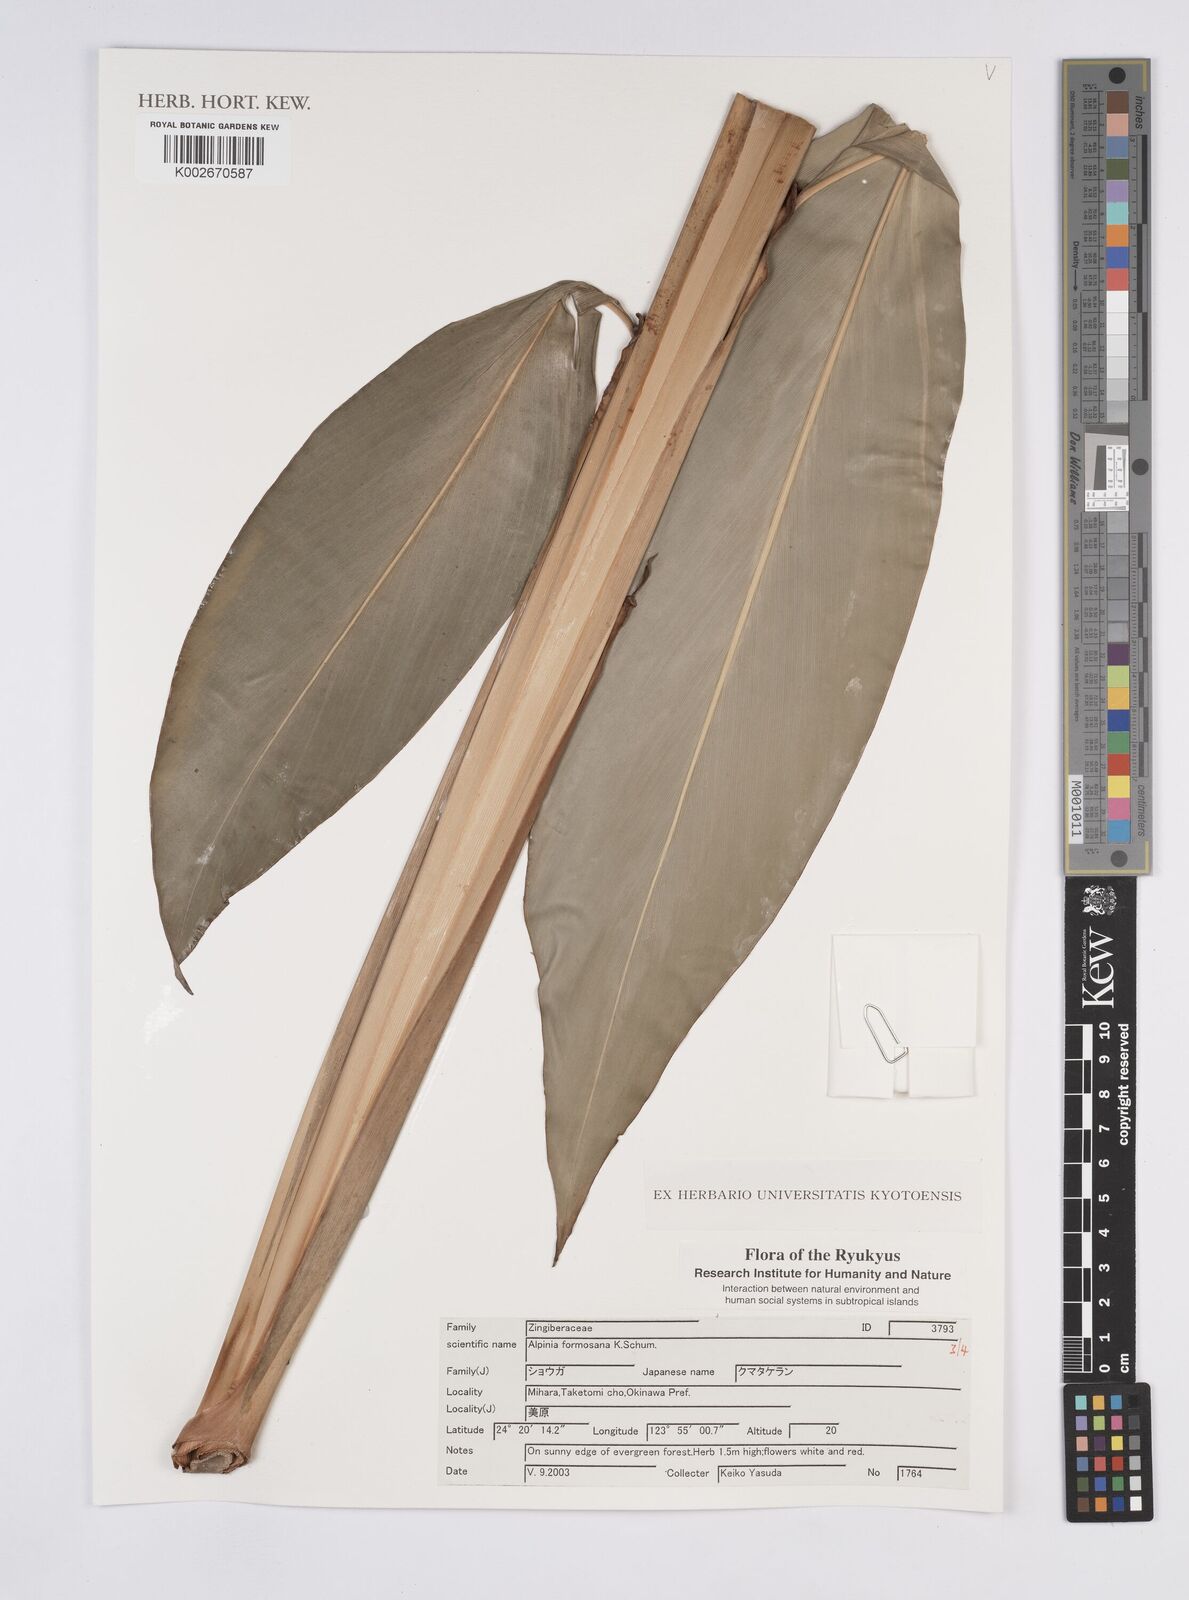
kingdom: Plantae
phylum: Tracheophyta
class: Liliopsida
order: Zingiberales
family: Zingiberaceae
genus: Alpinia
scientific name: Alpinia formosana
